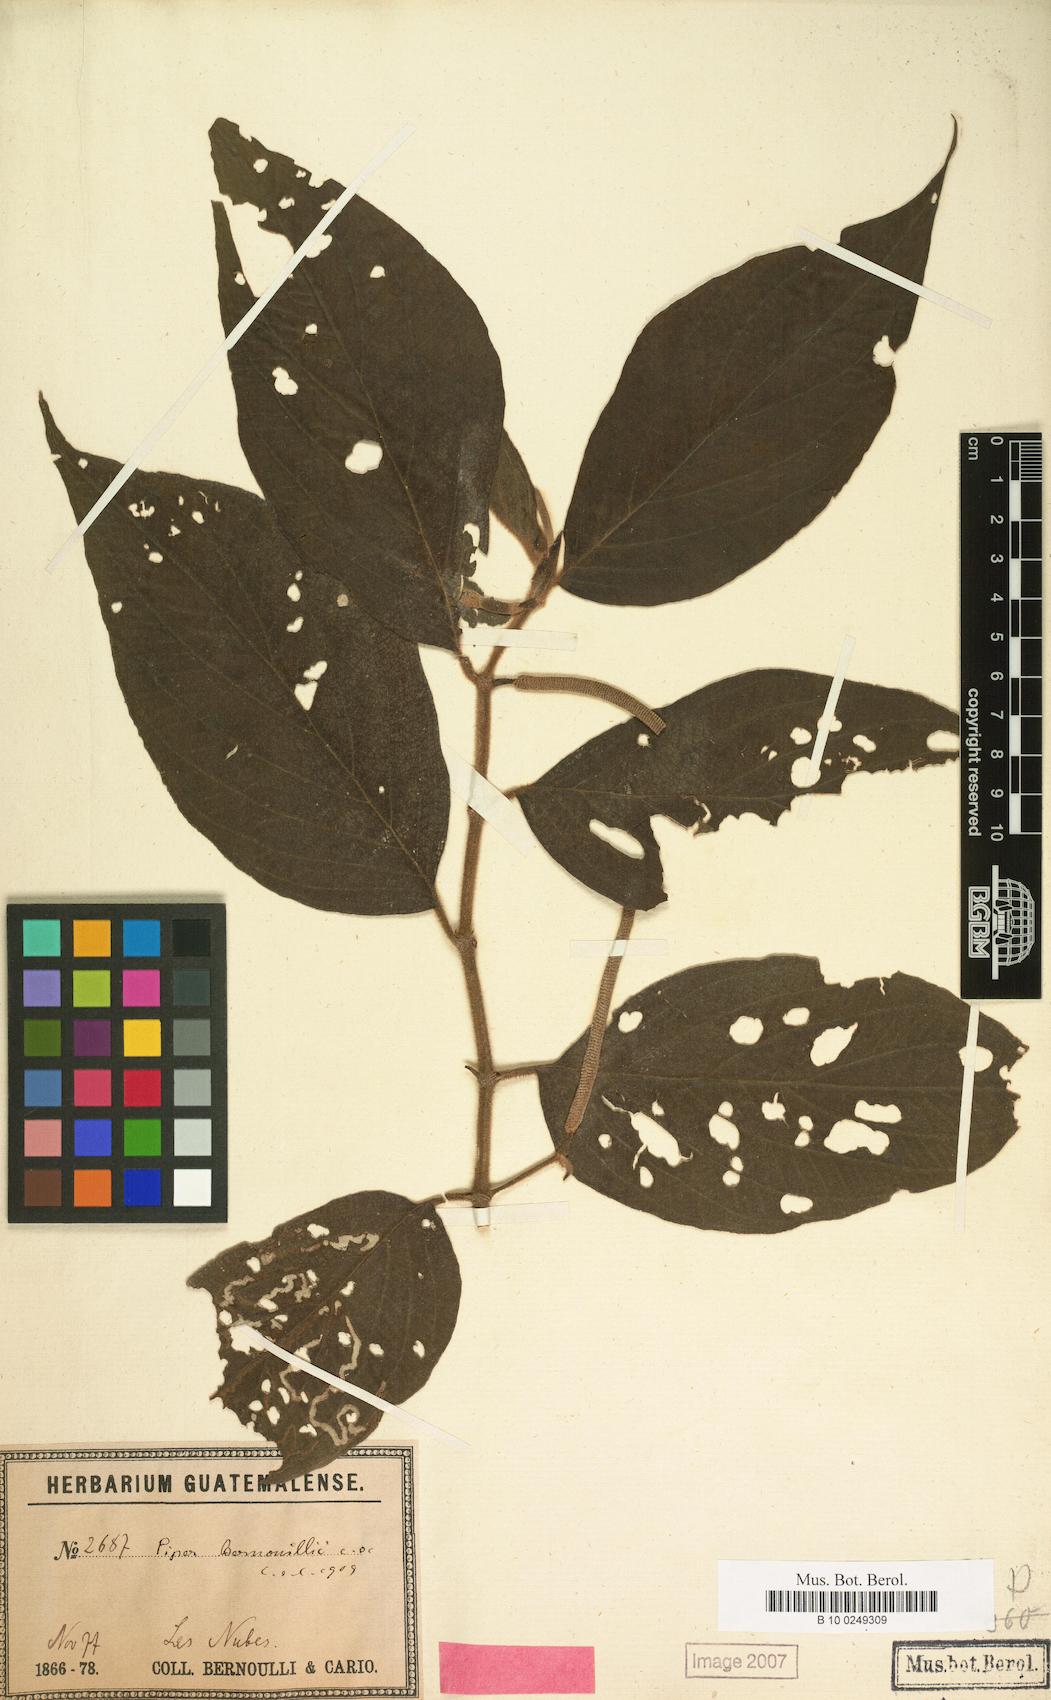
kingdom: Plantae
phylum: Tracheophyta
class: Magnoliopsida
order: Piperales
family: Piperaceae
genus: Piper
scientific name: Piper bernoullii
